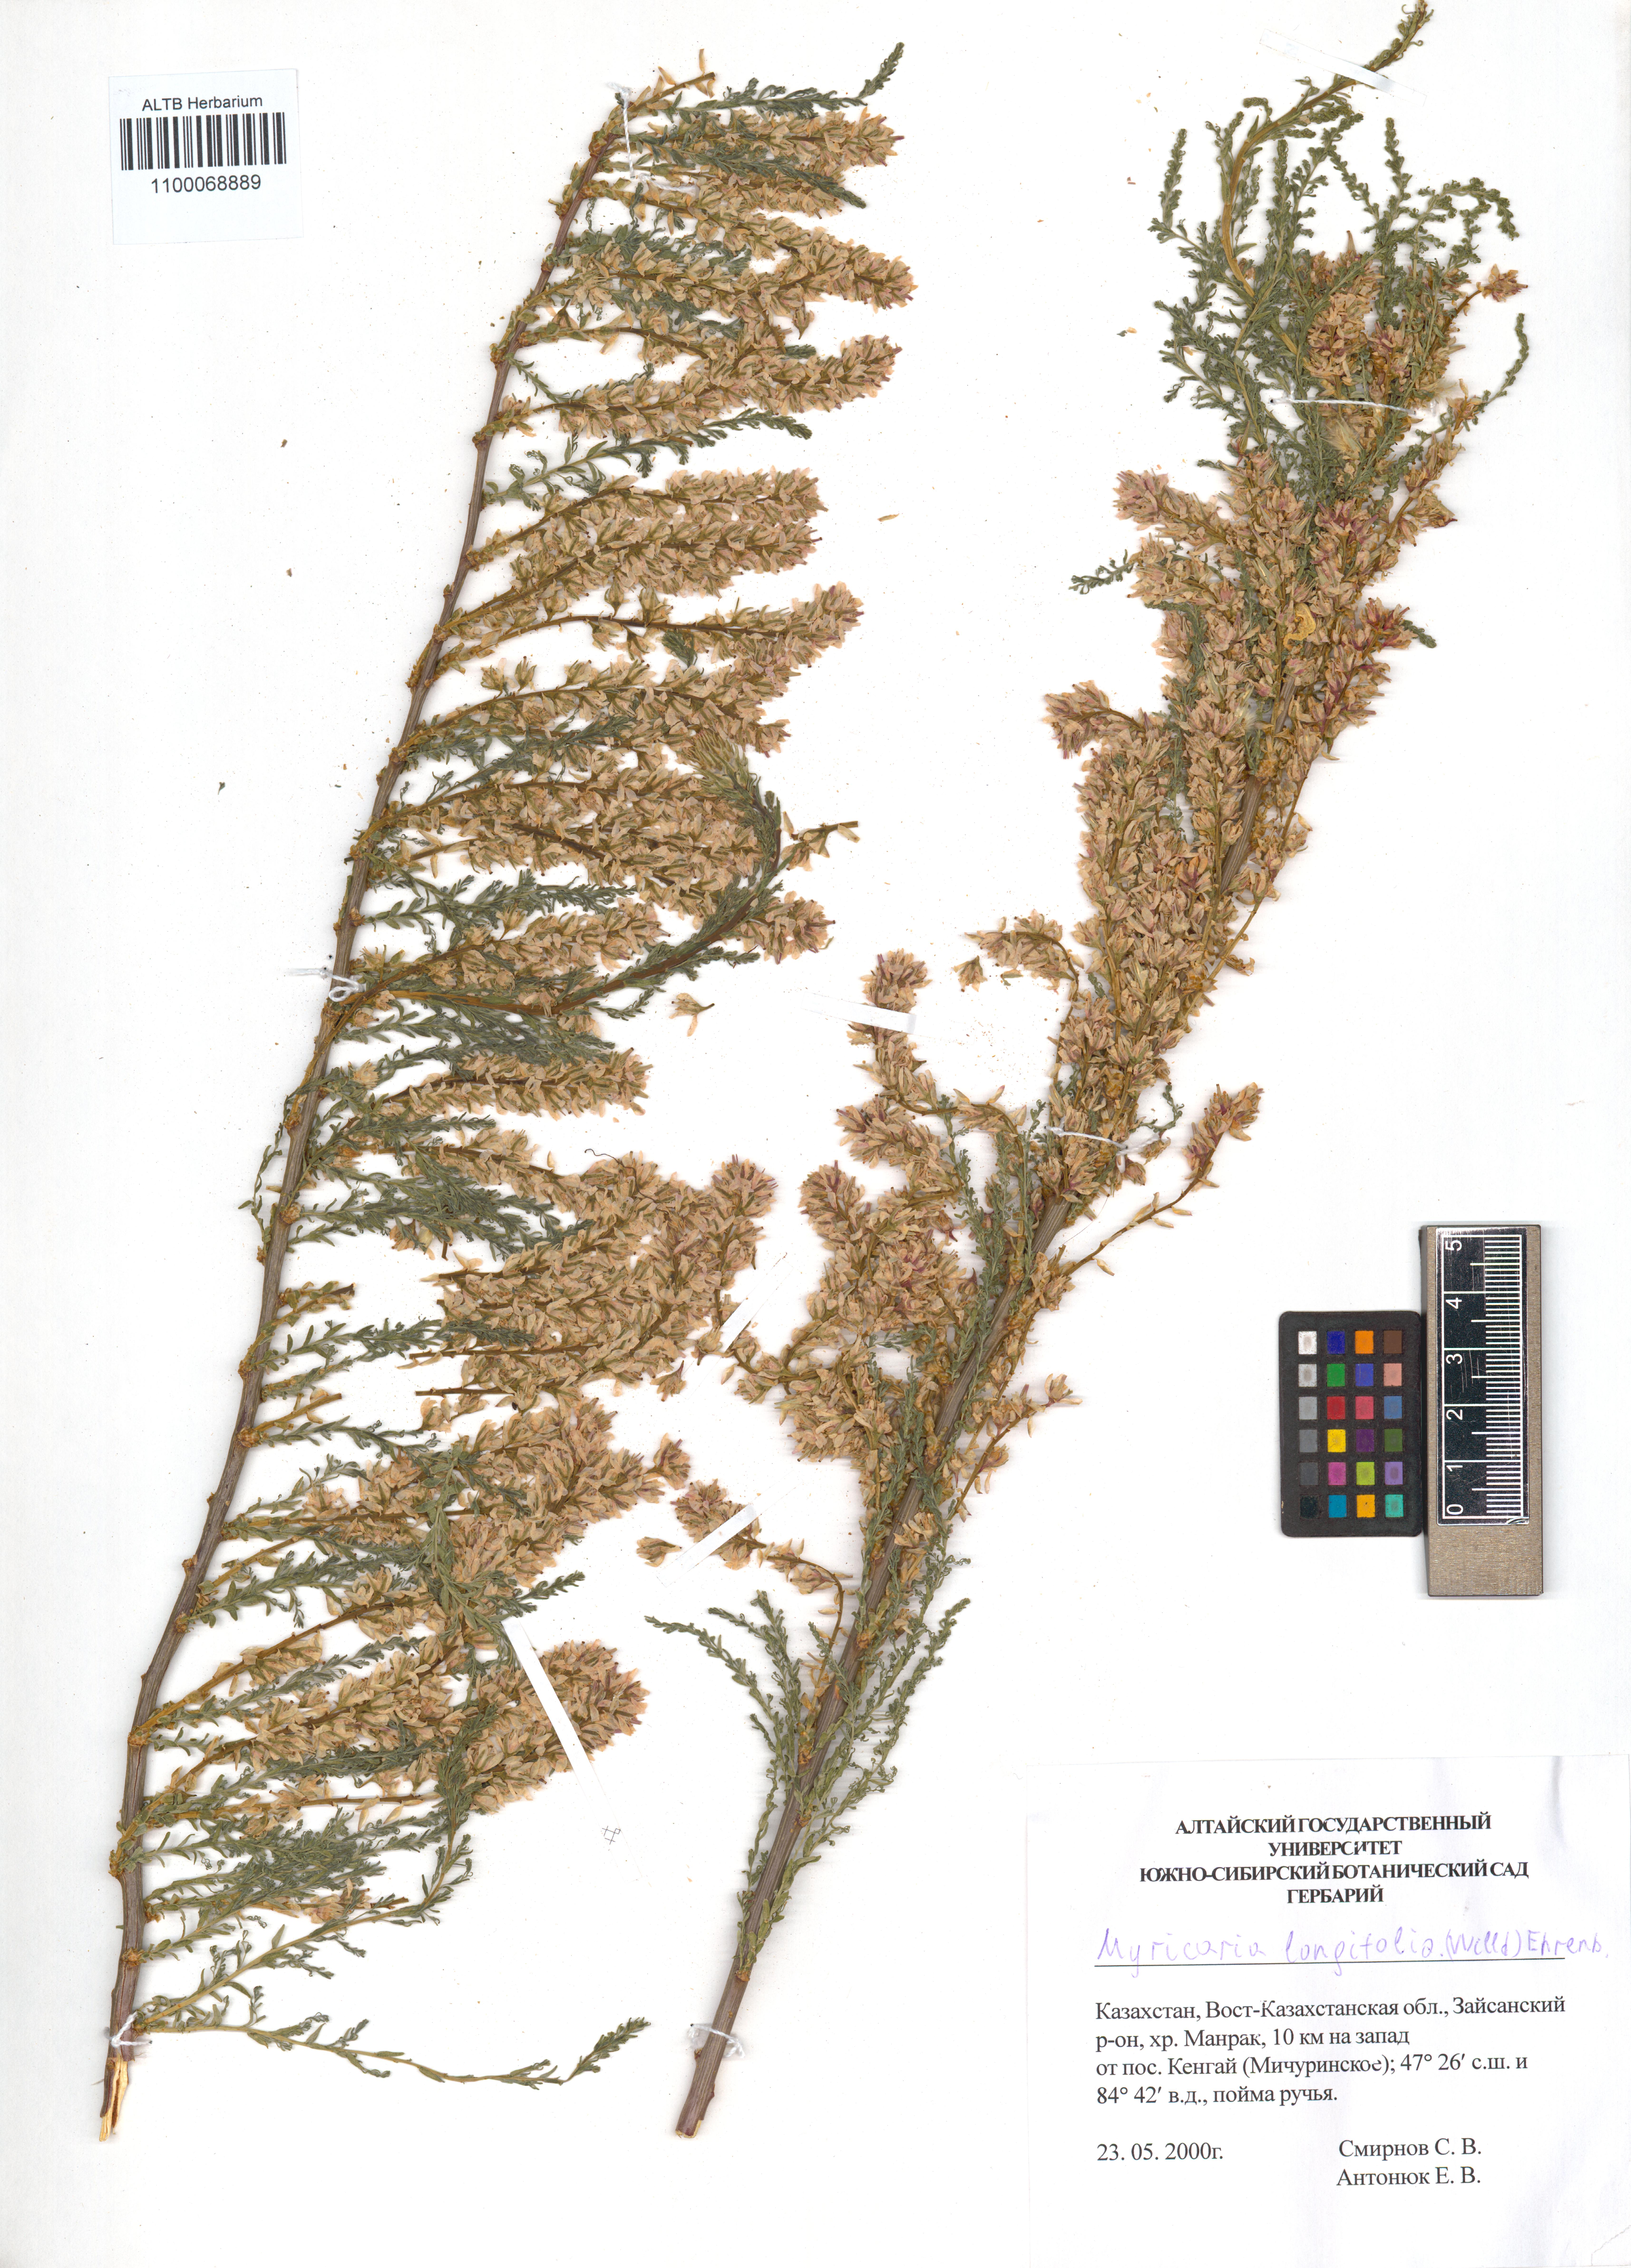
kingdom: Plantae
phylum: Tracheophyta
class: Magnoliopsida
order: Caryophyllales
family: Tamaricaceae
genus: Myricaria
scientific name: Myricaria longifolia
